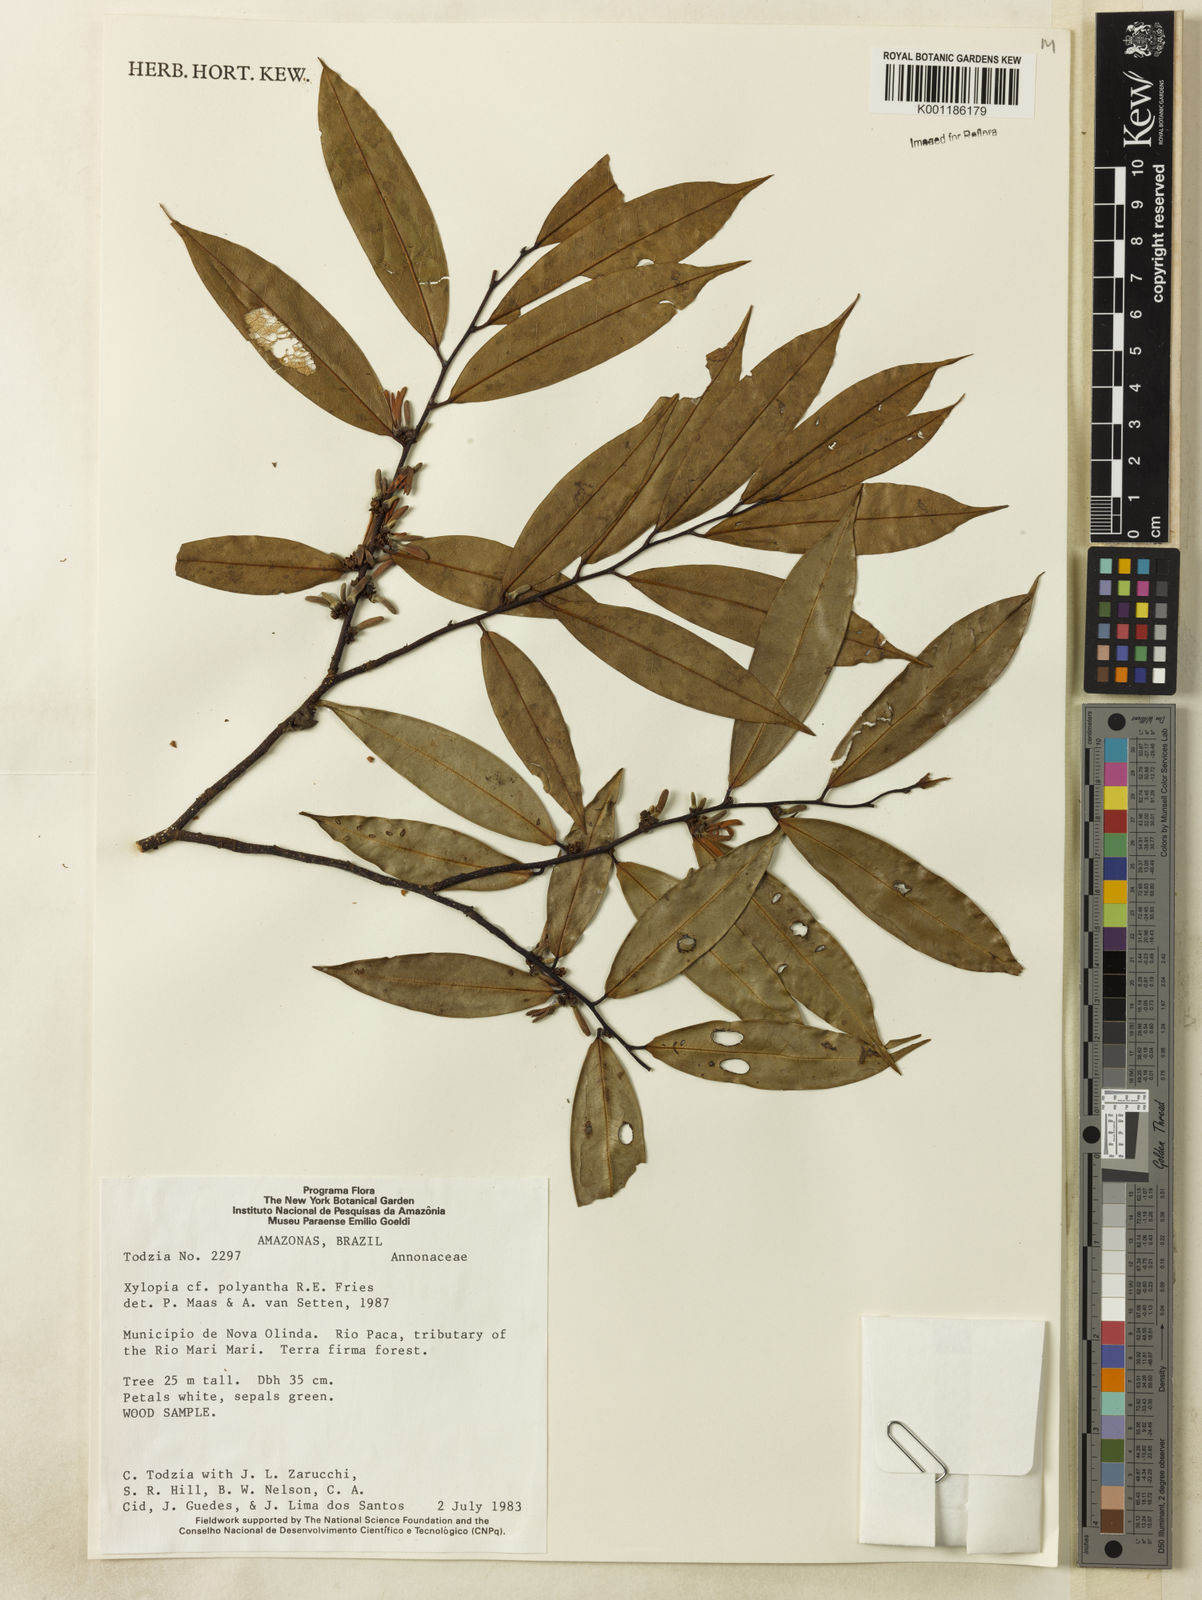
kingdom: Plantae
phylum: Tracheophyta
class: Magnoliopsida
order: Magnoliales
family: Annonaceae
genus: Xylopia
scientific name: Xylopia polyantha
